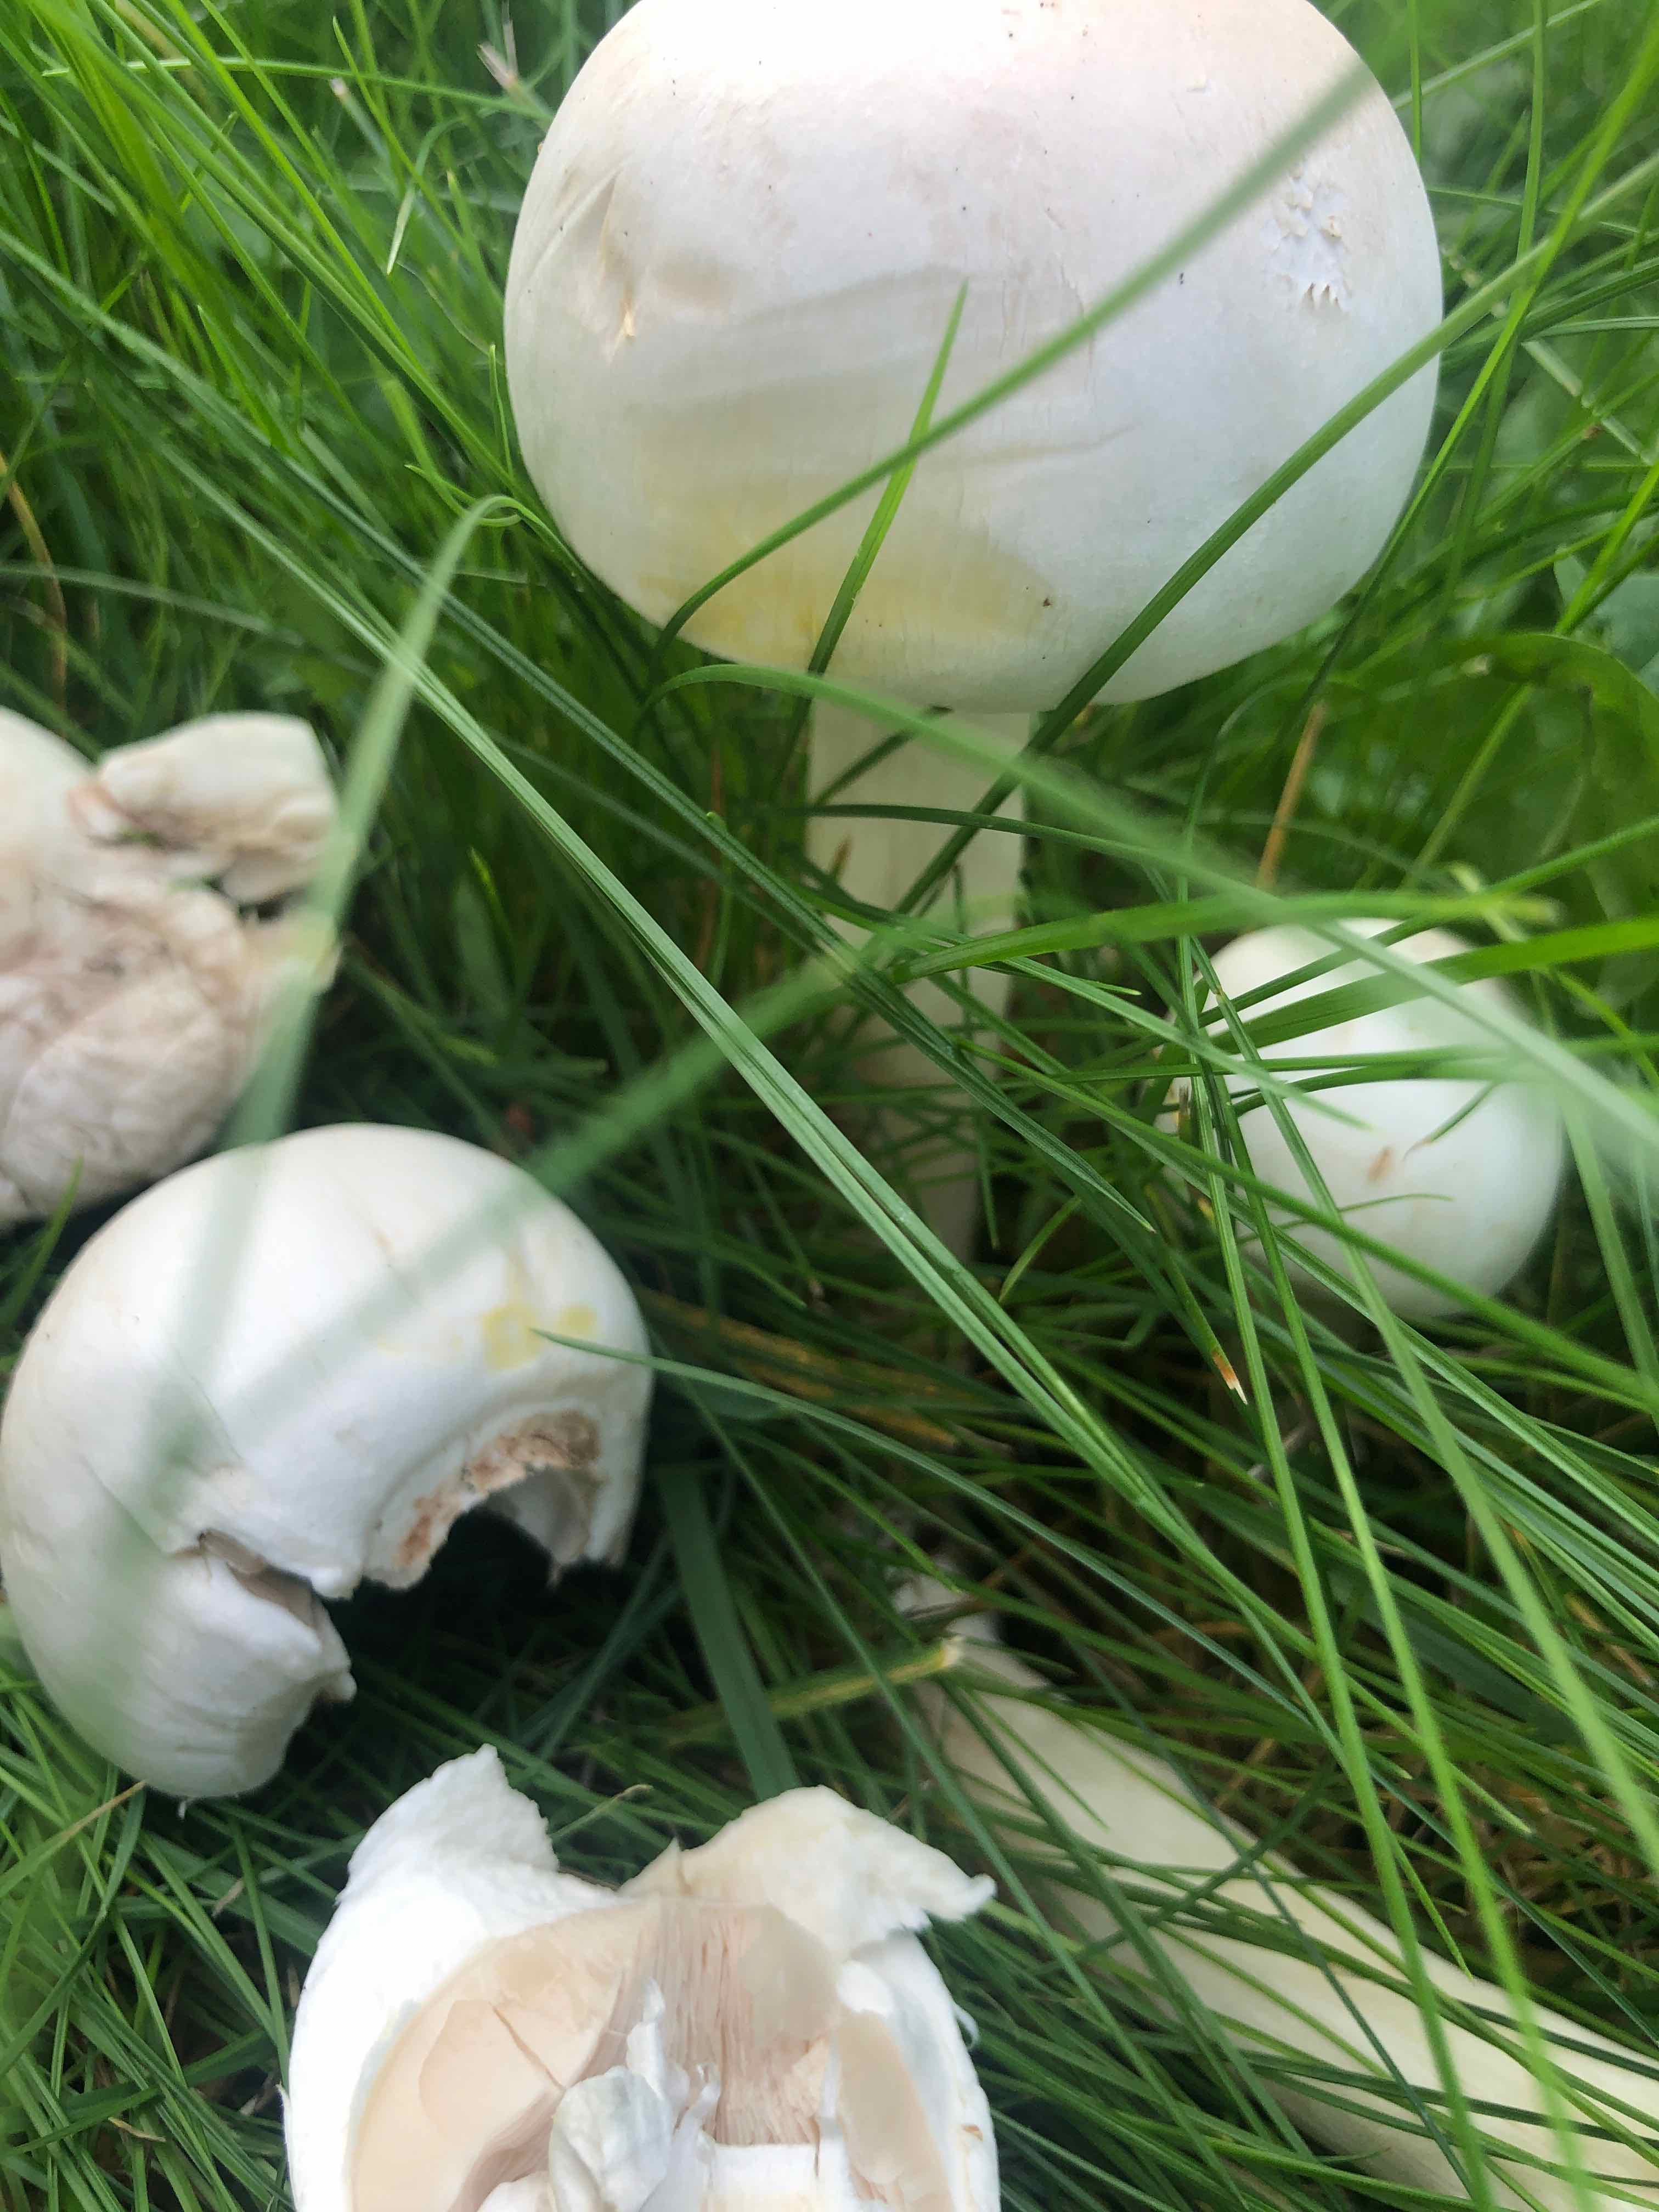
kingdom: Fungi
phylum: Basidiomycota
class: Agaricomycetes
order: Agaricales
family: Agaricaceae
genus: Agaricus
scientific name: Agaricus xanthodermus
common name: karbol-champignon
